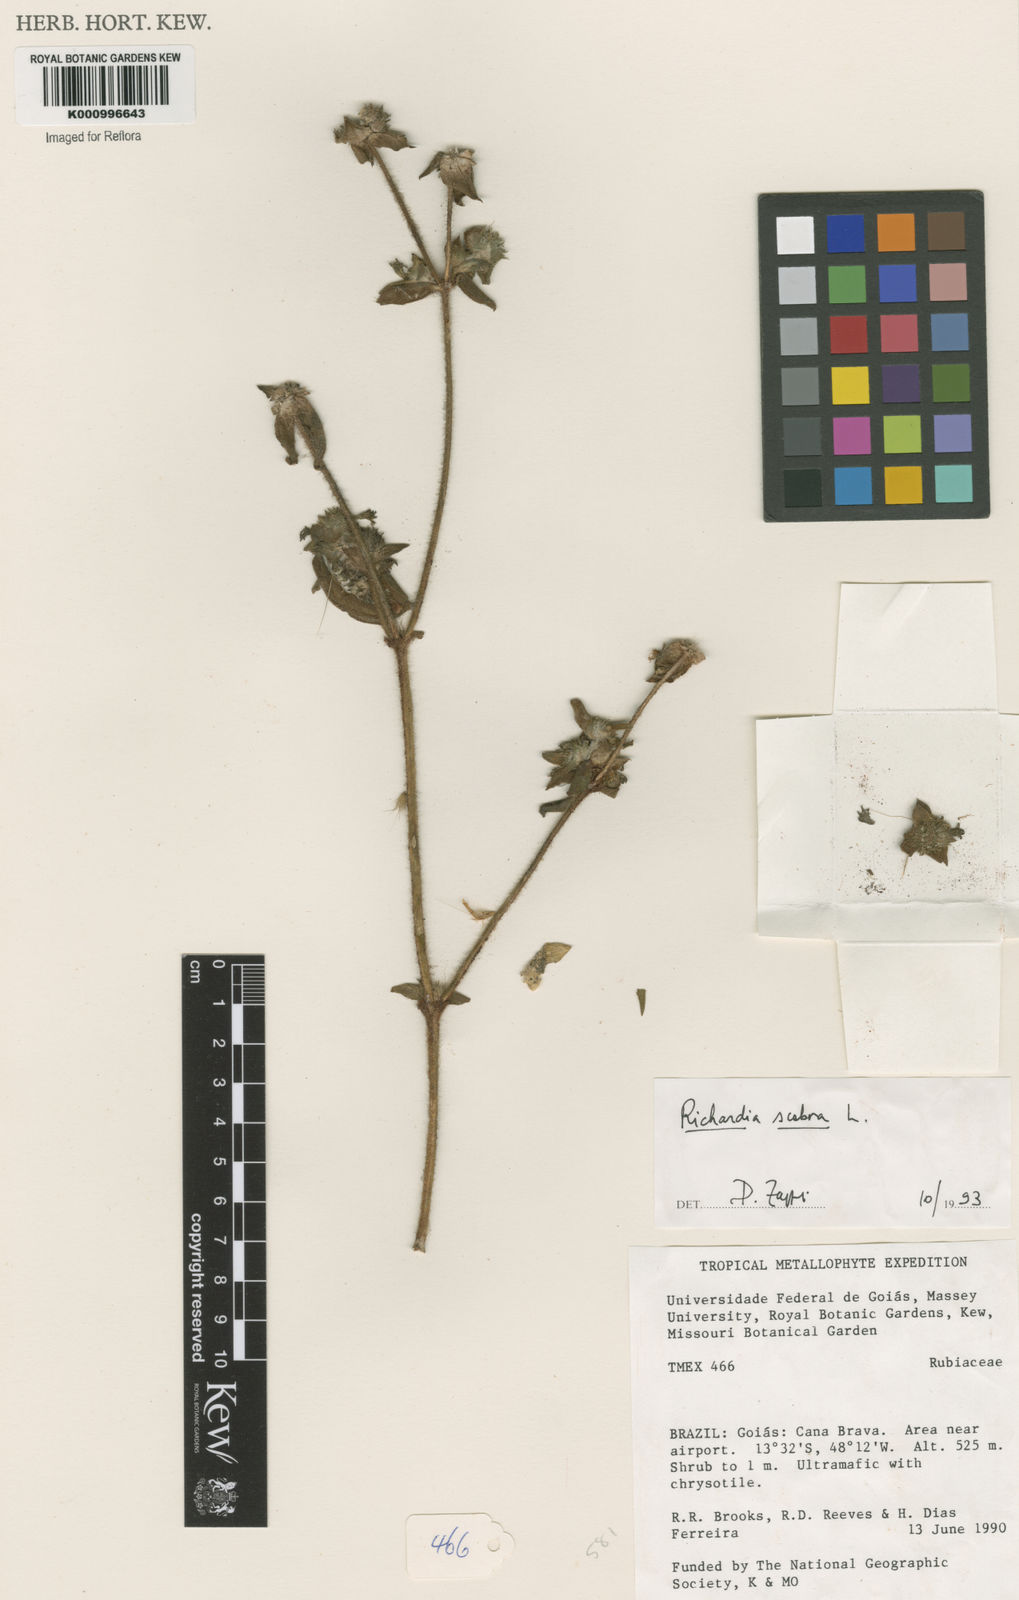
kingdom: Plantae
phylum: Tracheophyta
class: Magnoliopsida
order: Gentianales
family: Rubiaceae
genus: Richardia
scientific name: Richardia scabra
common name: Rough mexican clover
